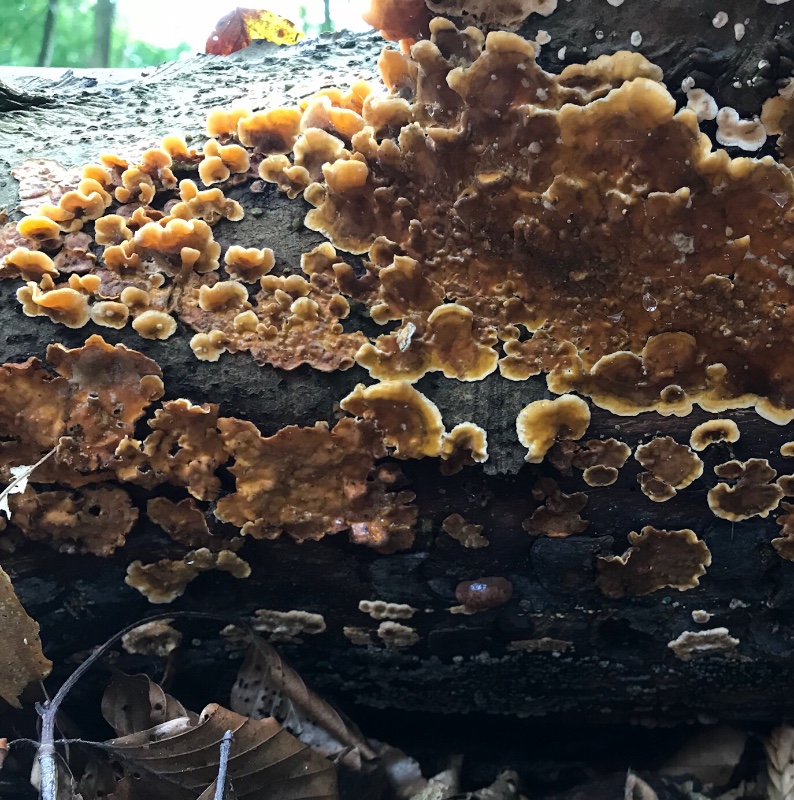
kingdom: Fungi
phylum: Basidiomycota
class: Agaricomycetes
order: Russulales
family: Stereaceae
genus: Stereum
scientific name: Stereum hirsutum
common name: håret lædersvamp
